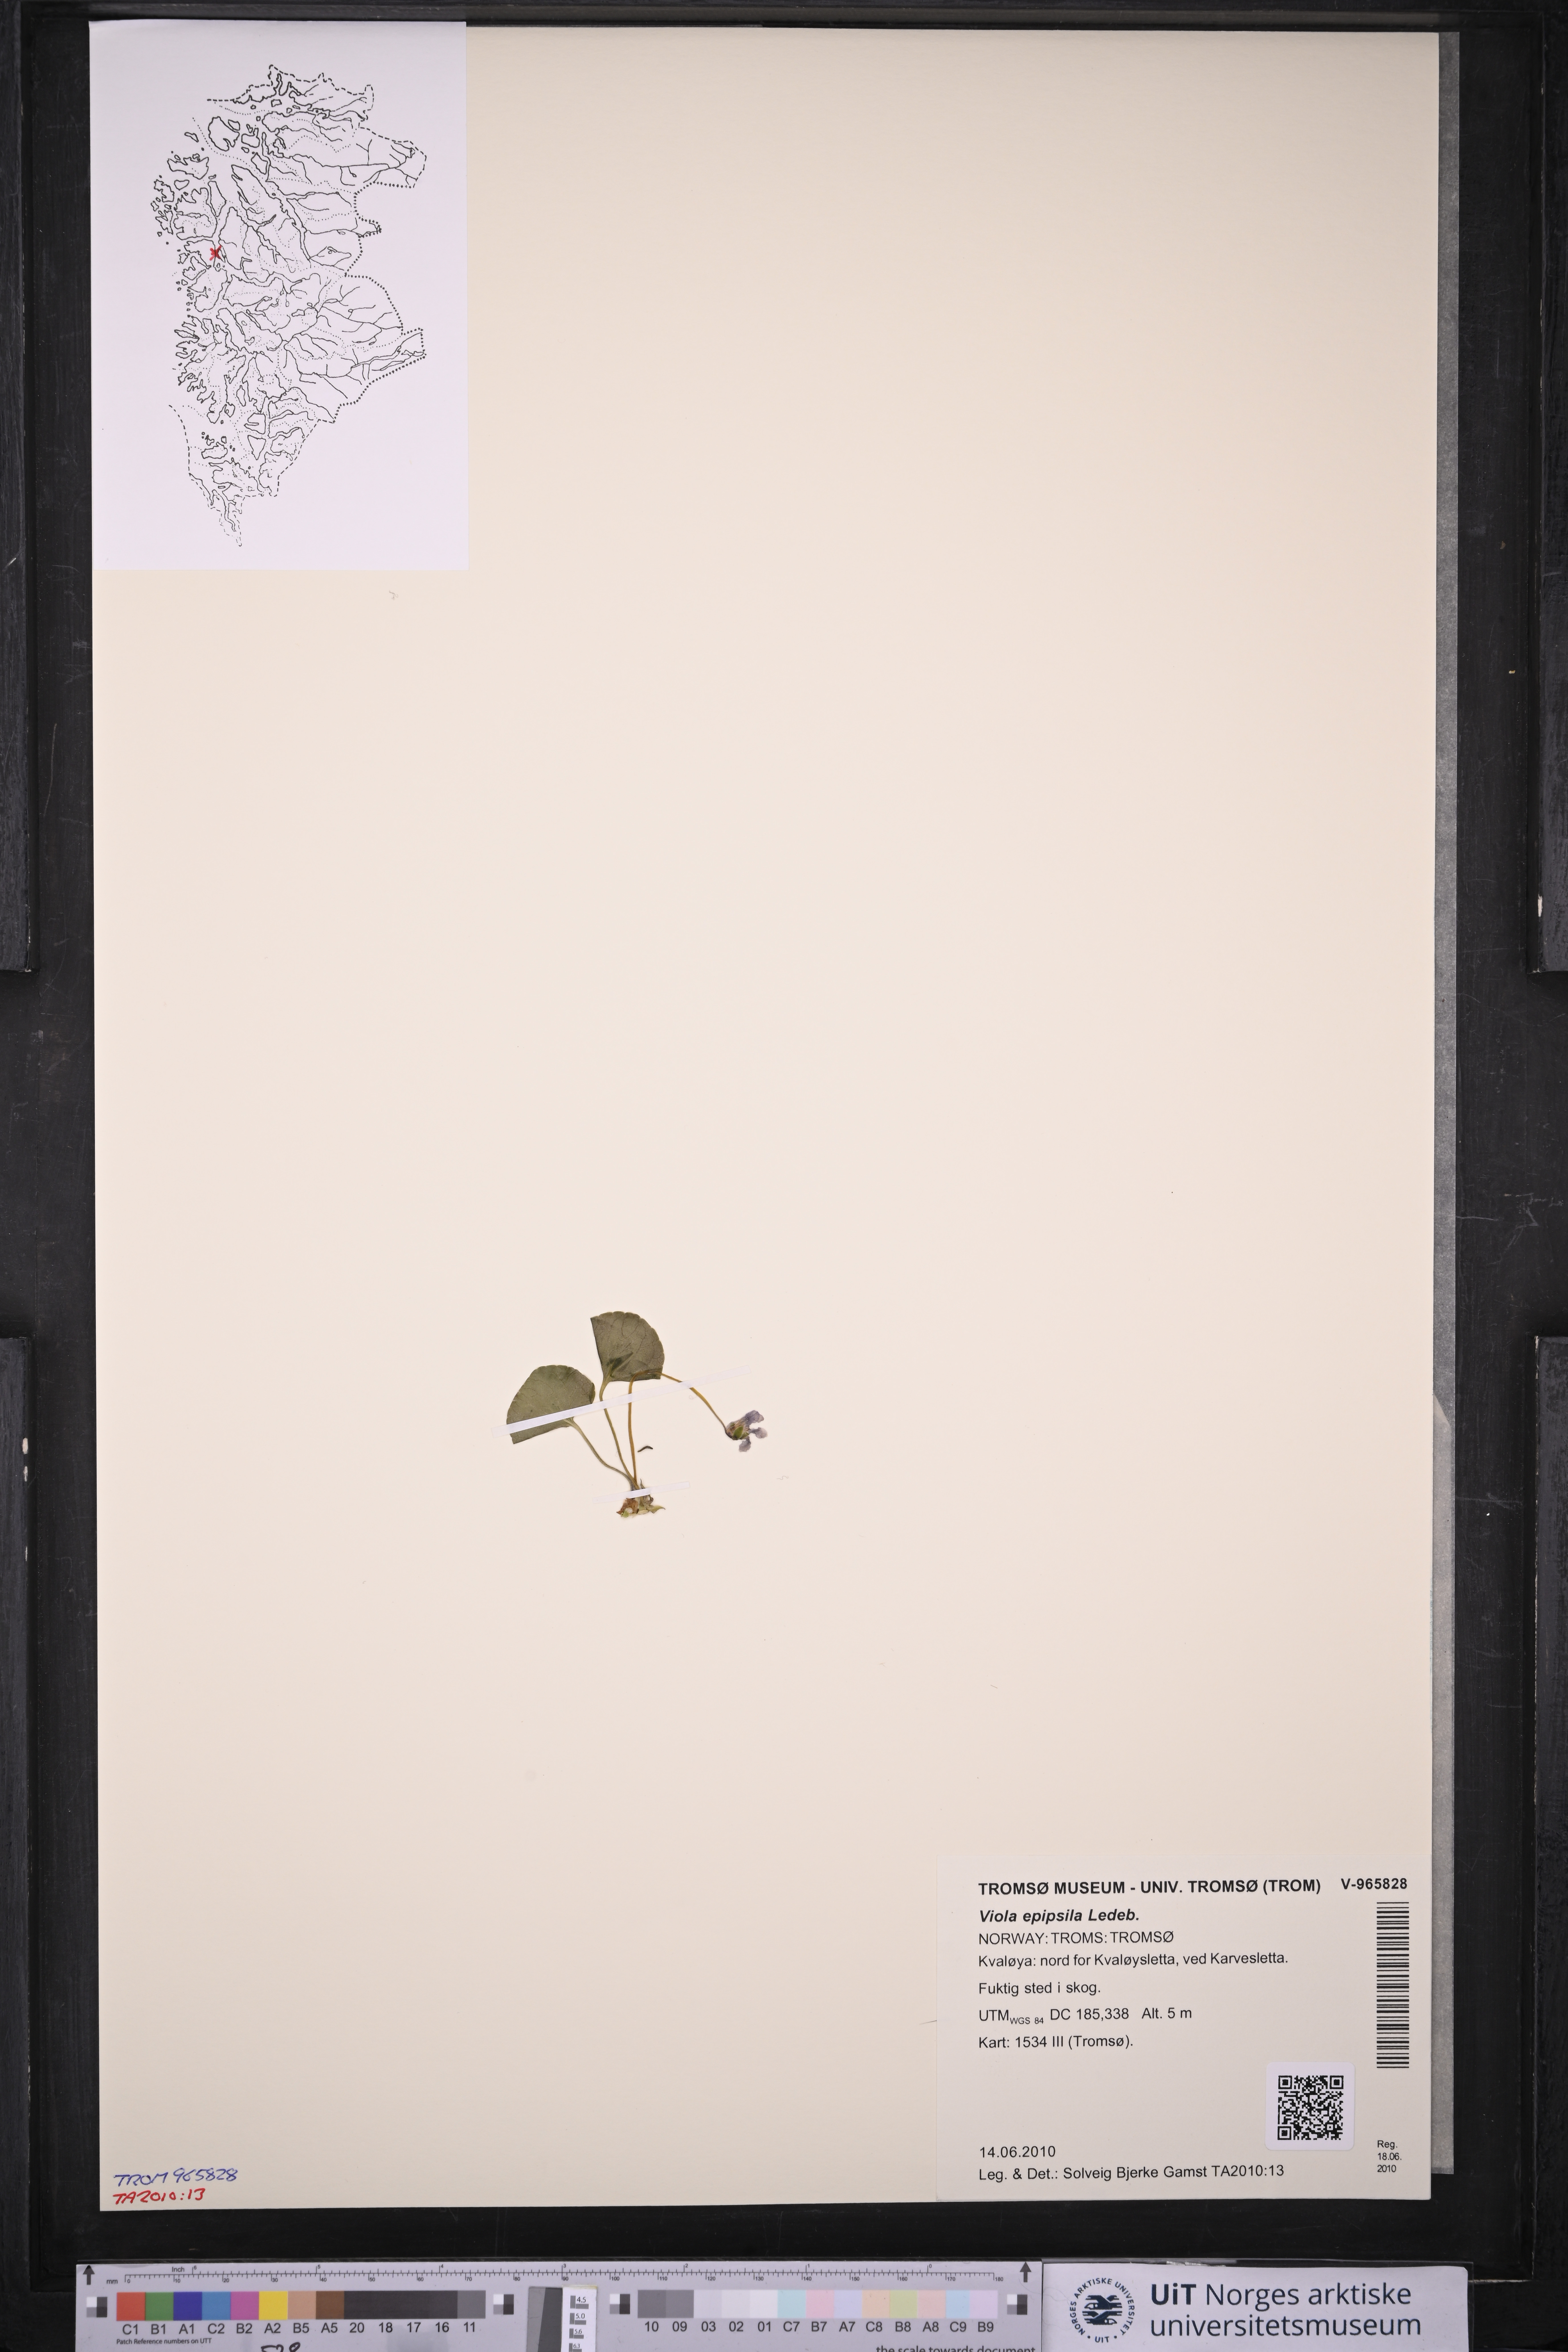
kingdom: Plantae
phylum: Tracheophyta
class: Magnoliopsida
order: Malpighiales
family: Violaceae
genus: Viola
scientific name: Viola epipsila
